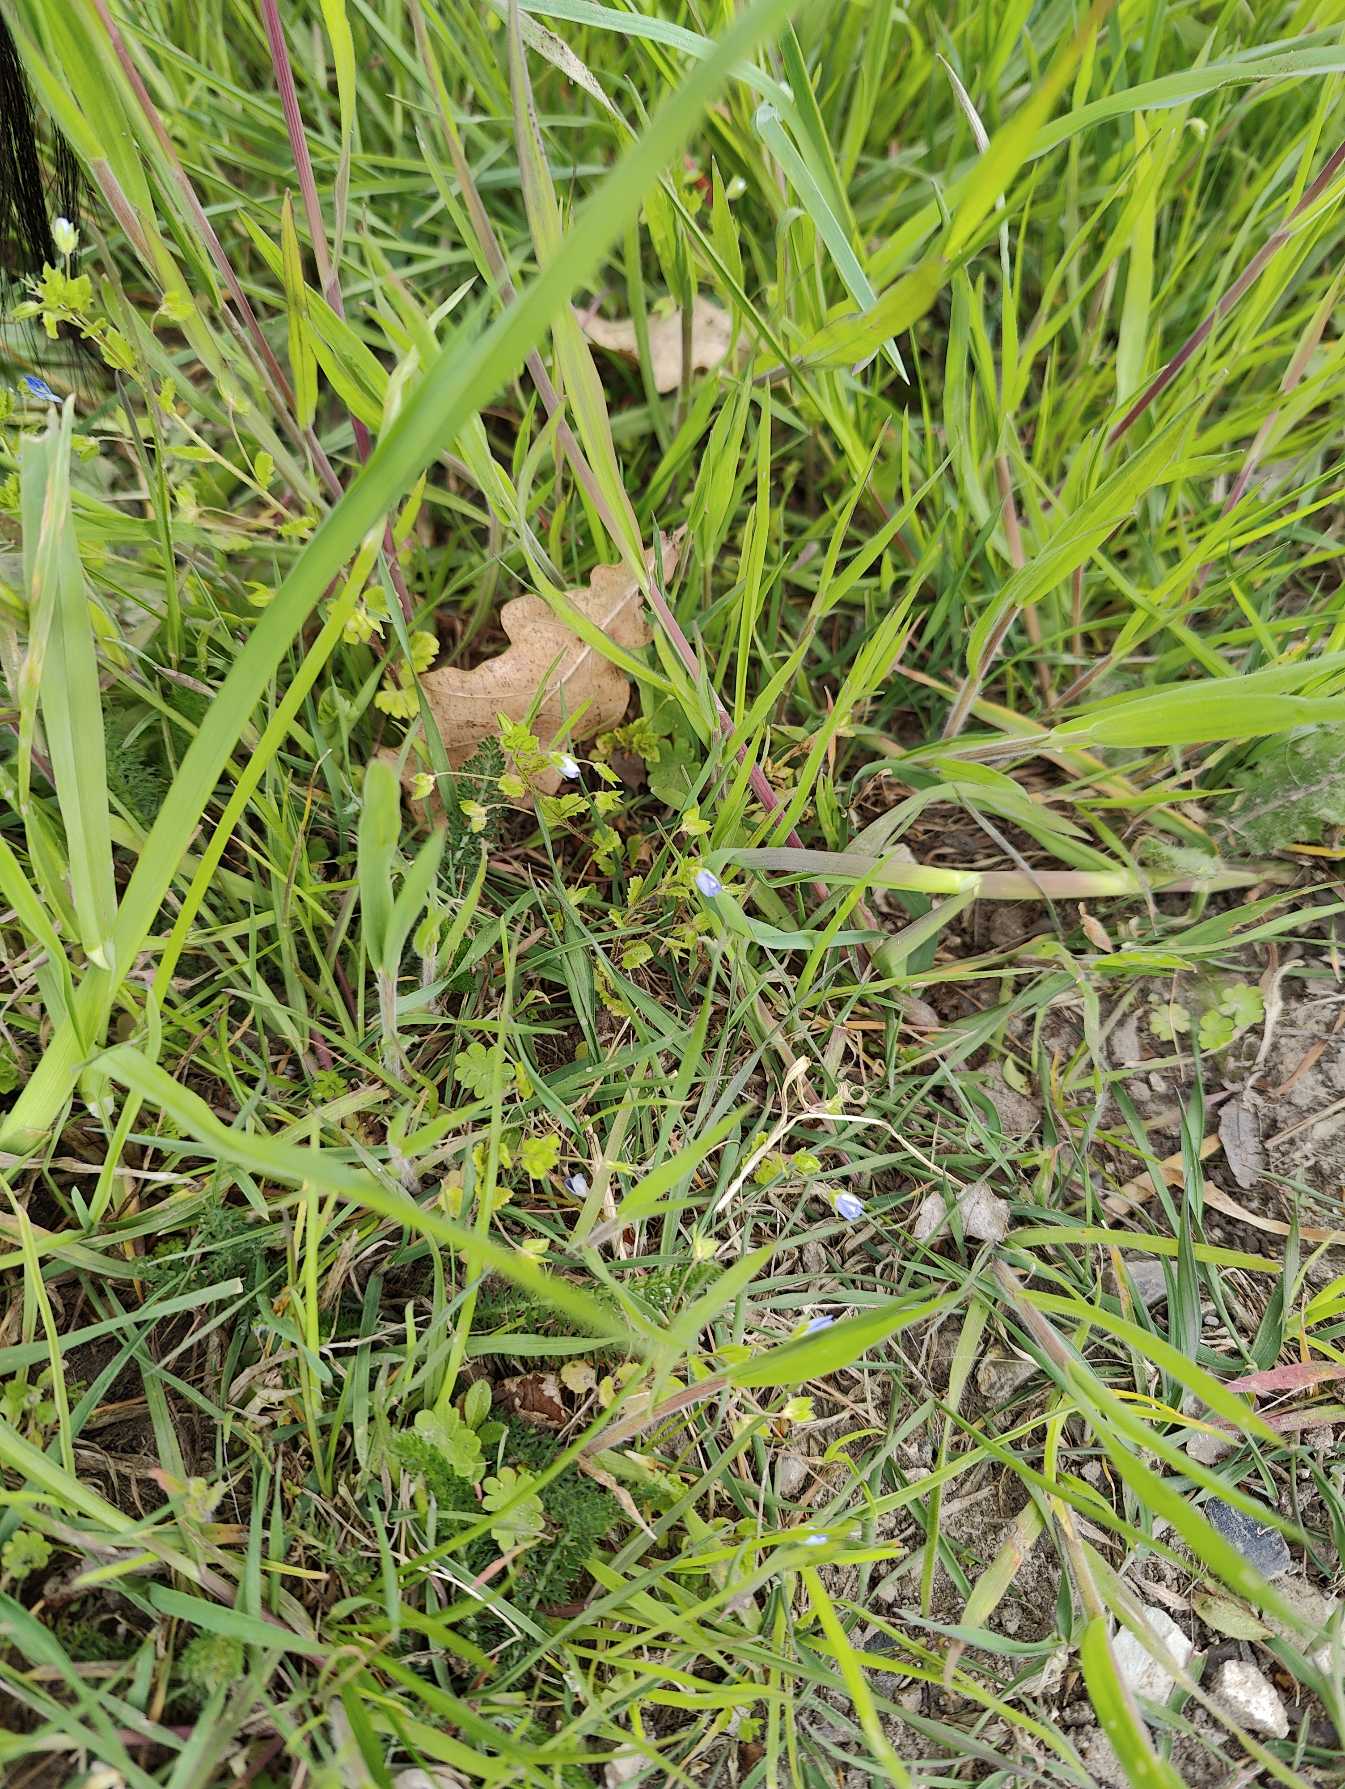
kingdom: Plantae
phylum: Tracheophyta
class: Magnoliopsida
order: Lamiales
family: Plantaginaceae
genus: Veronica
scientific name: Veronica persica
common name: Storkronet ærenpris
